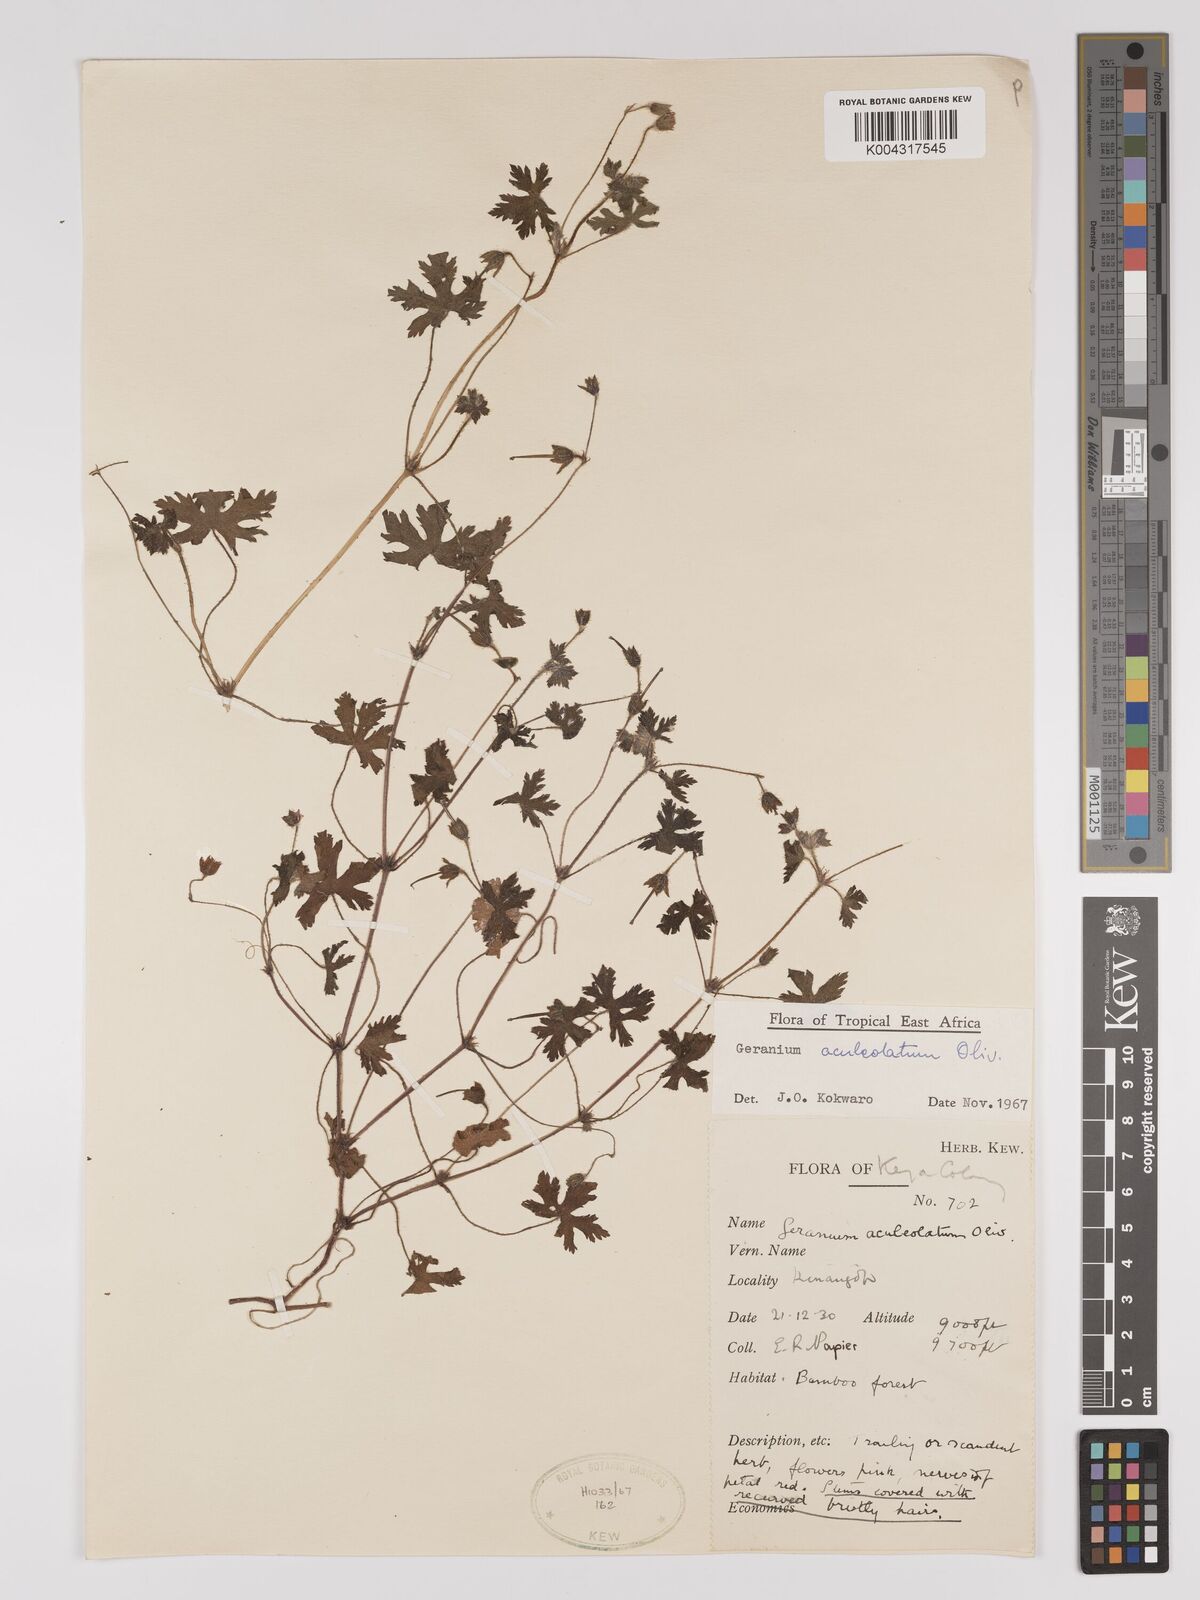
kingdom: Plantae
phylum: Tracheophyta
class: Magnoliopsida
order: Geraniales
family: Geraniaceae
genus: Geranium
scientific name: Geranium aculeolatum
